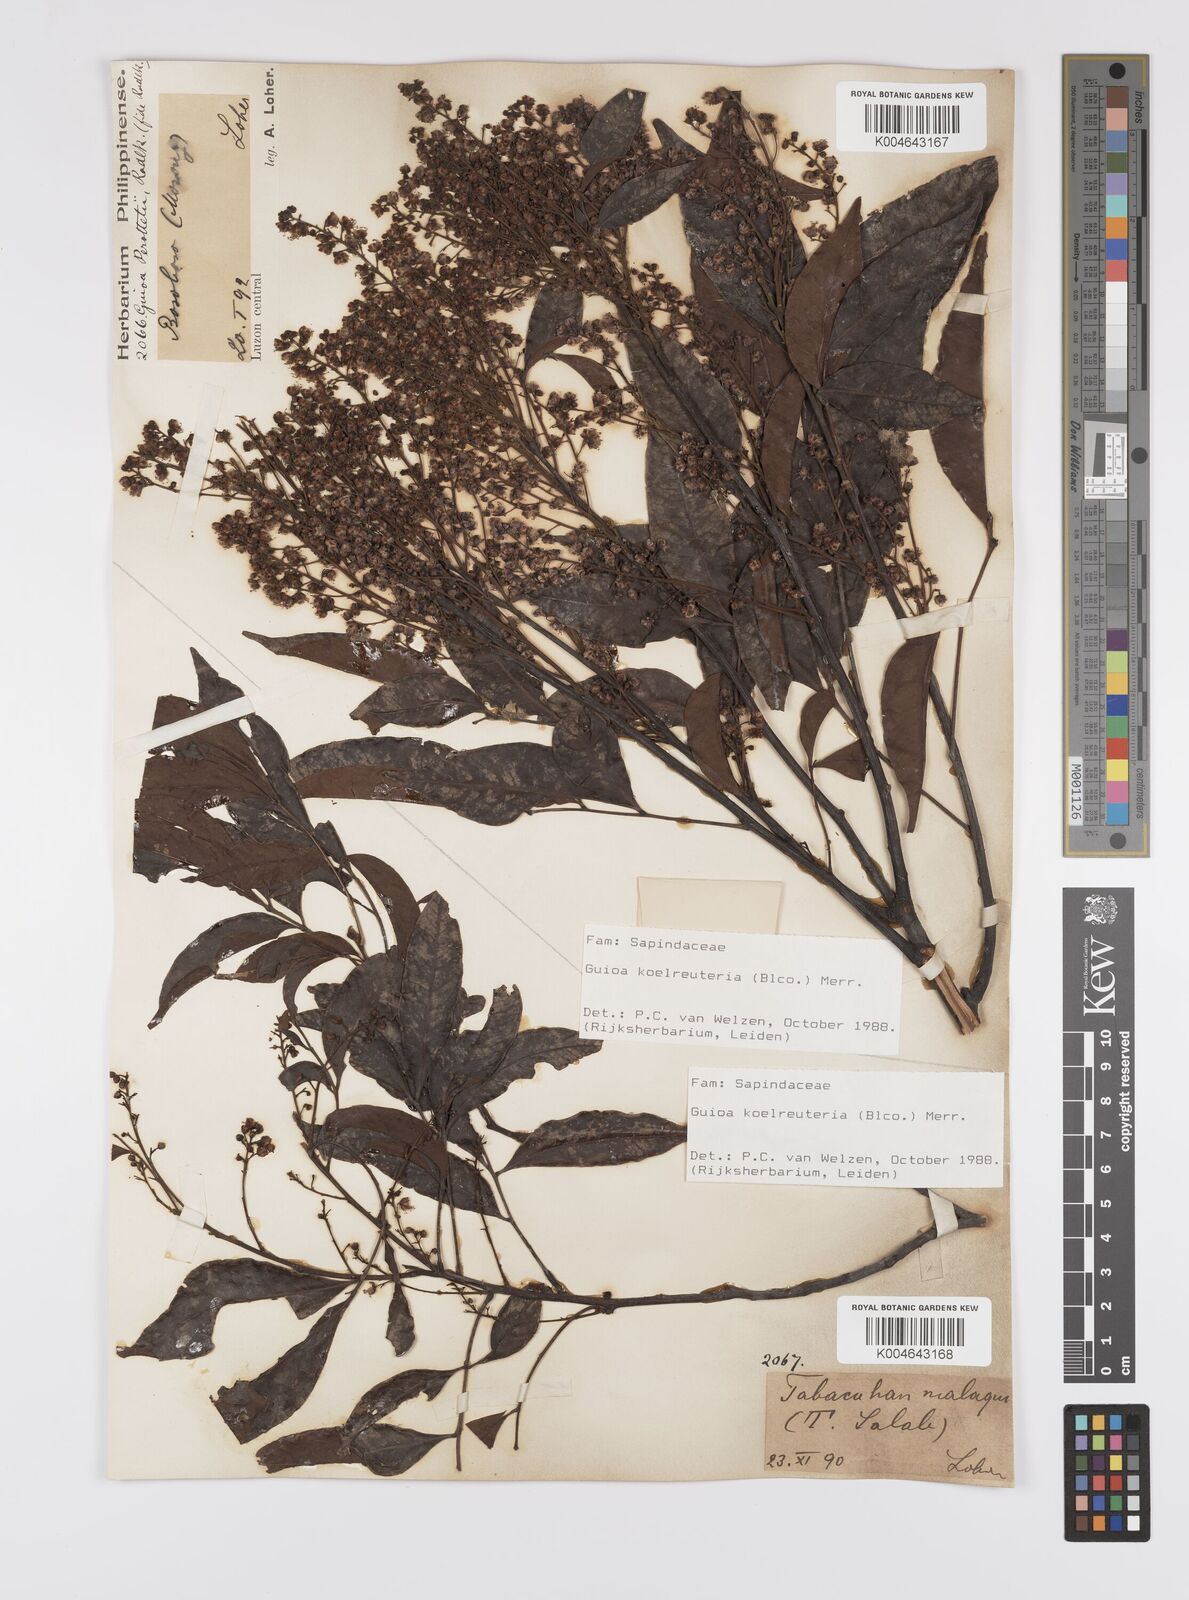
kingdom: Plantae
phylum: Tracheophyta
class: Magnoliopsida
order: Sapindales
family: Sapindaceae
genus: Guioa
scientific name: Guioa koelreuteria
